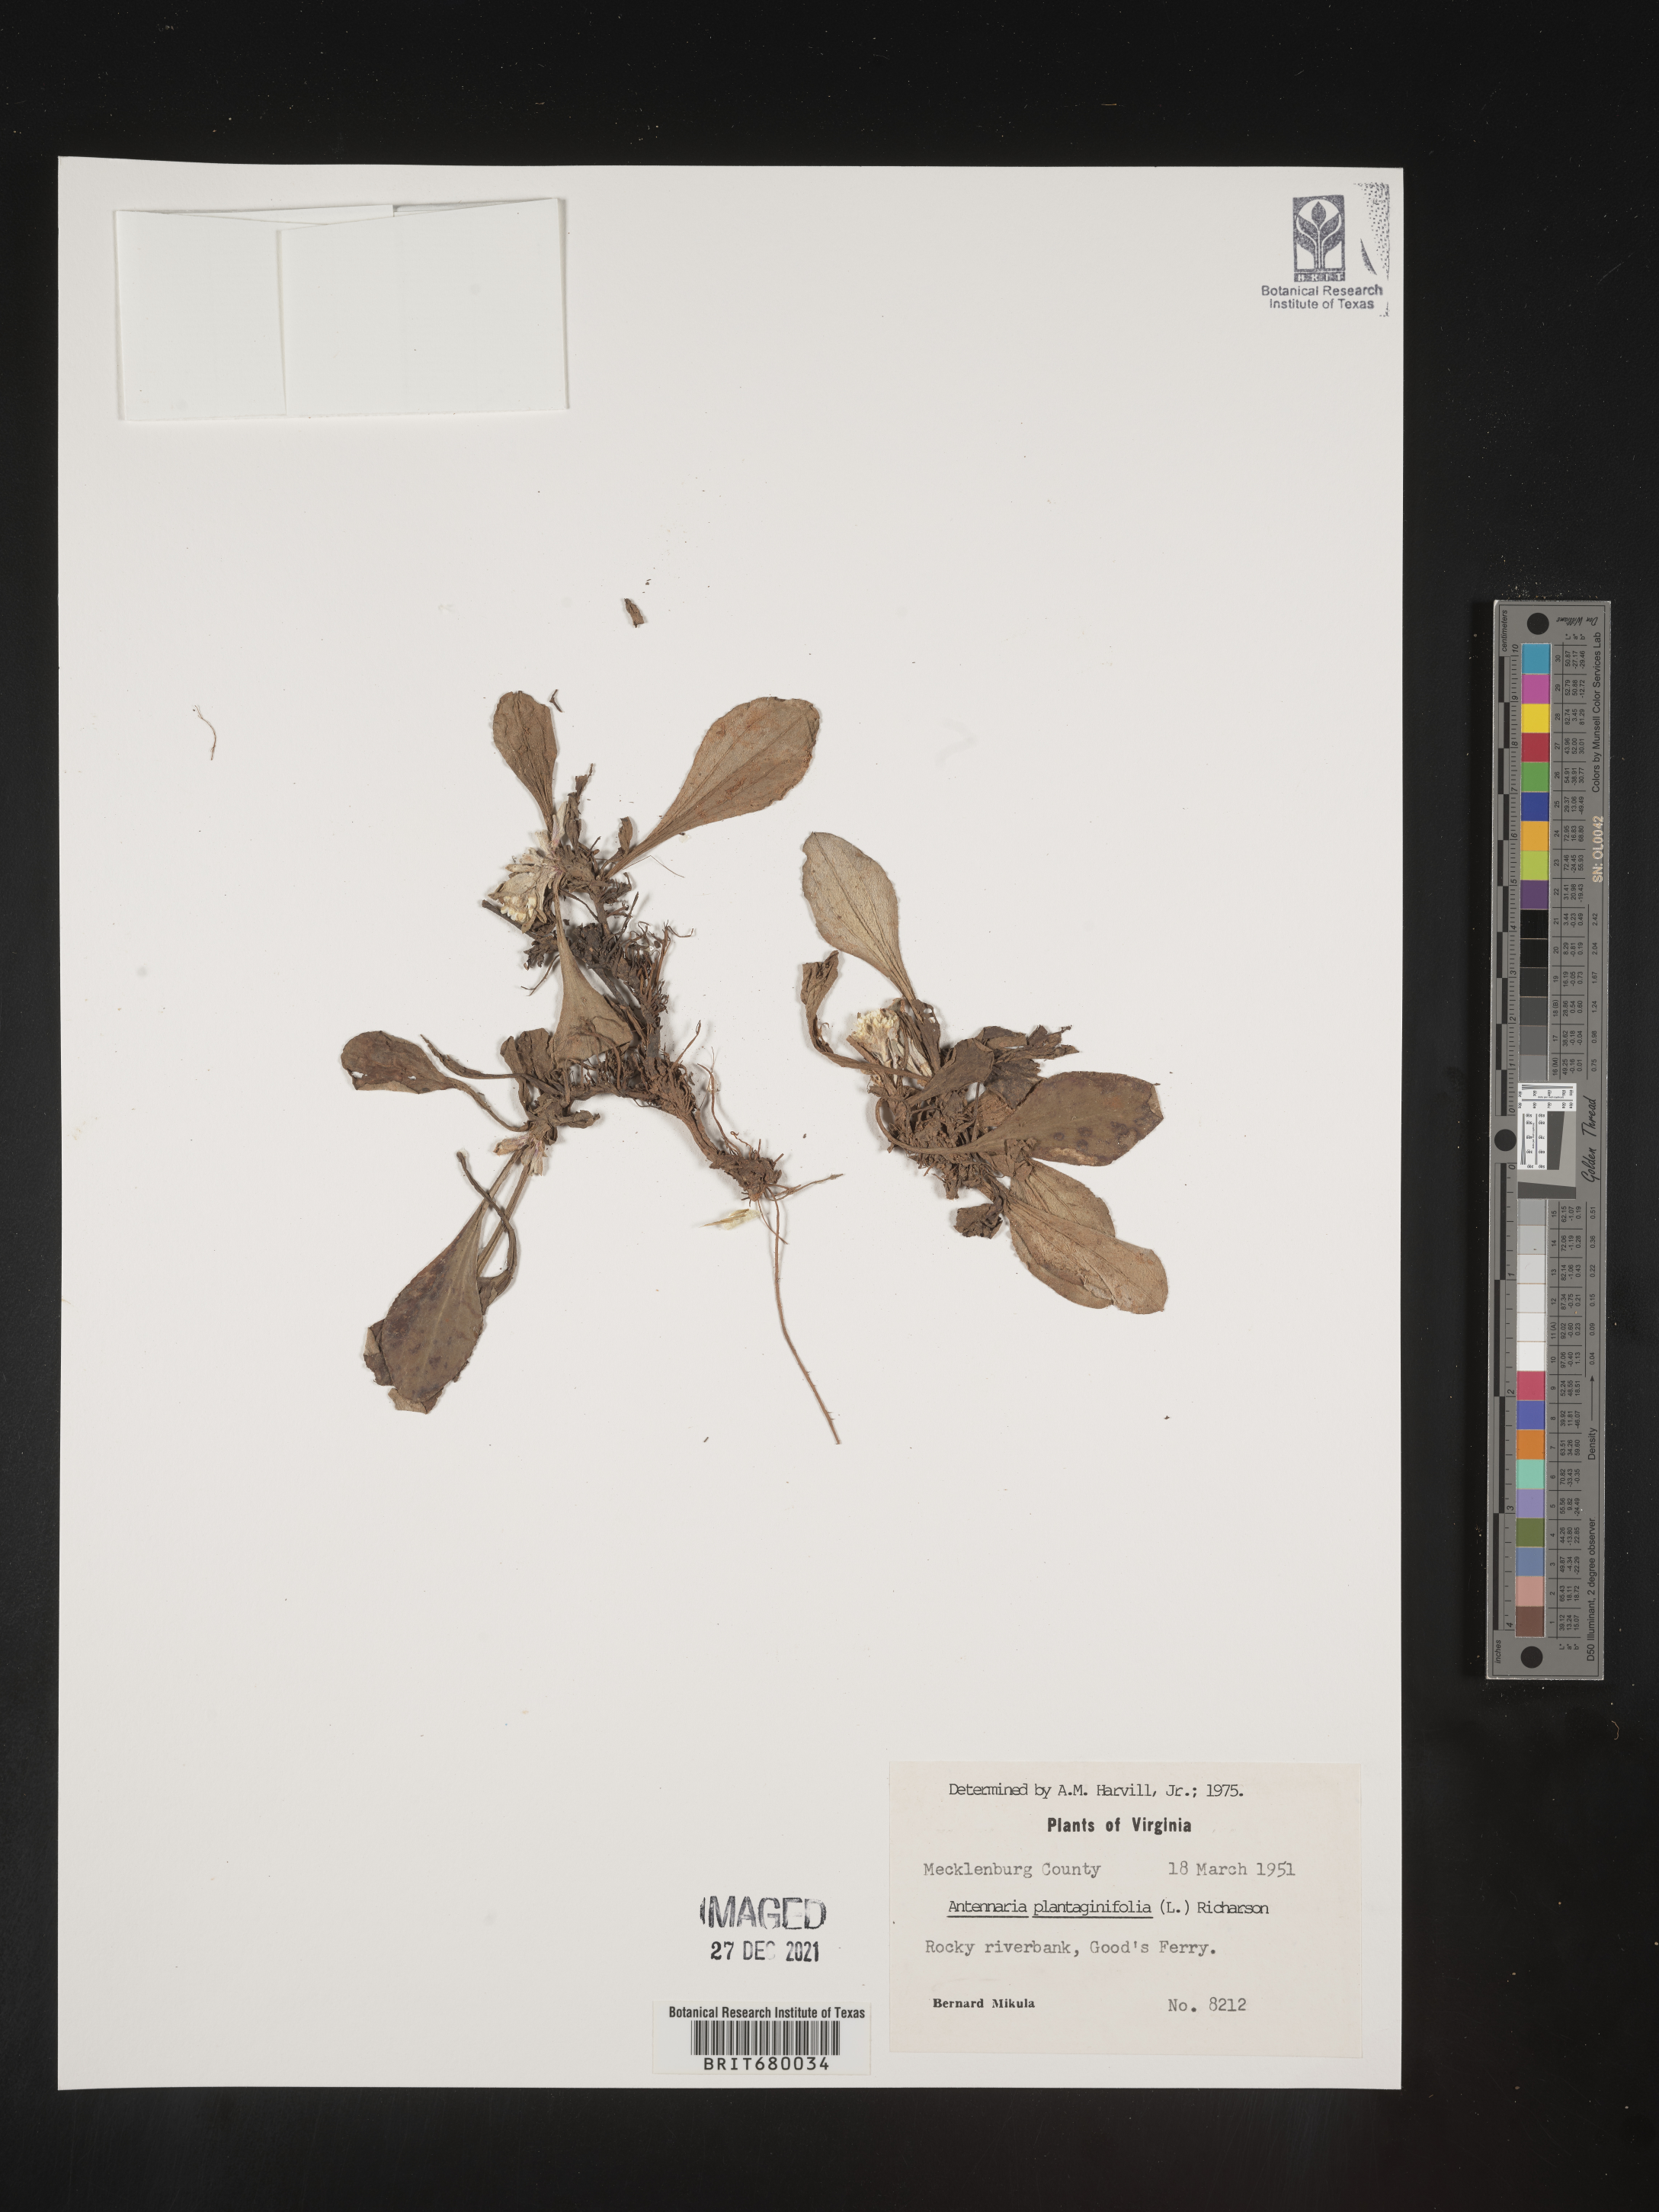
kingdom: Plantae
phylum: Tracheophyta
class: Magnoliopsida
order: Asterales
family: Asteraceae
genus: Antennaria
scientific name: Antennaria plantaginifolia
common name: Plantain-leaved pussytoes
